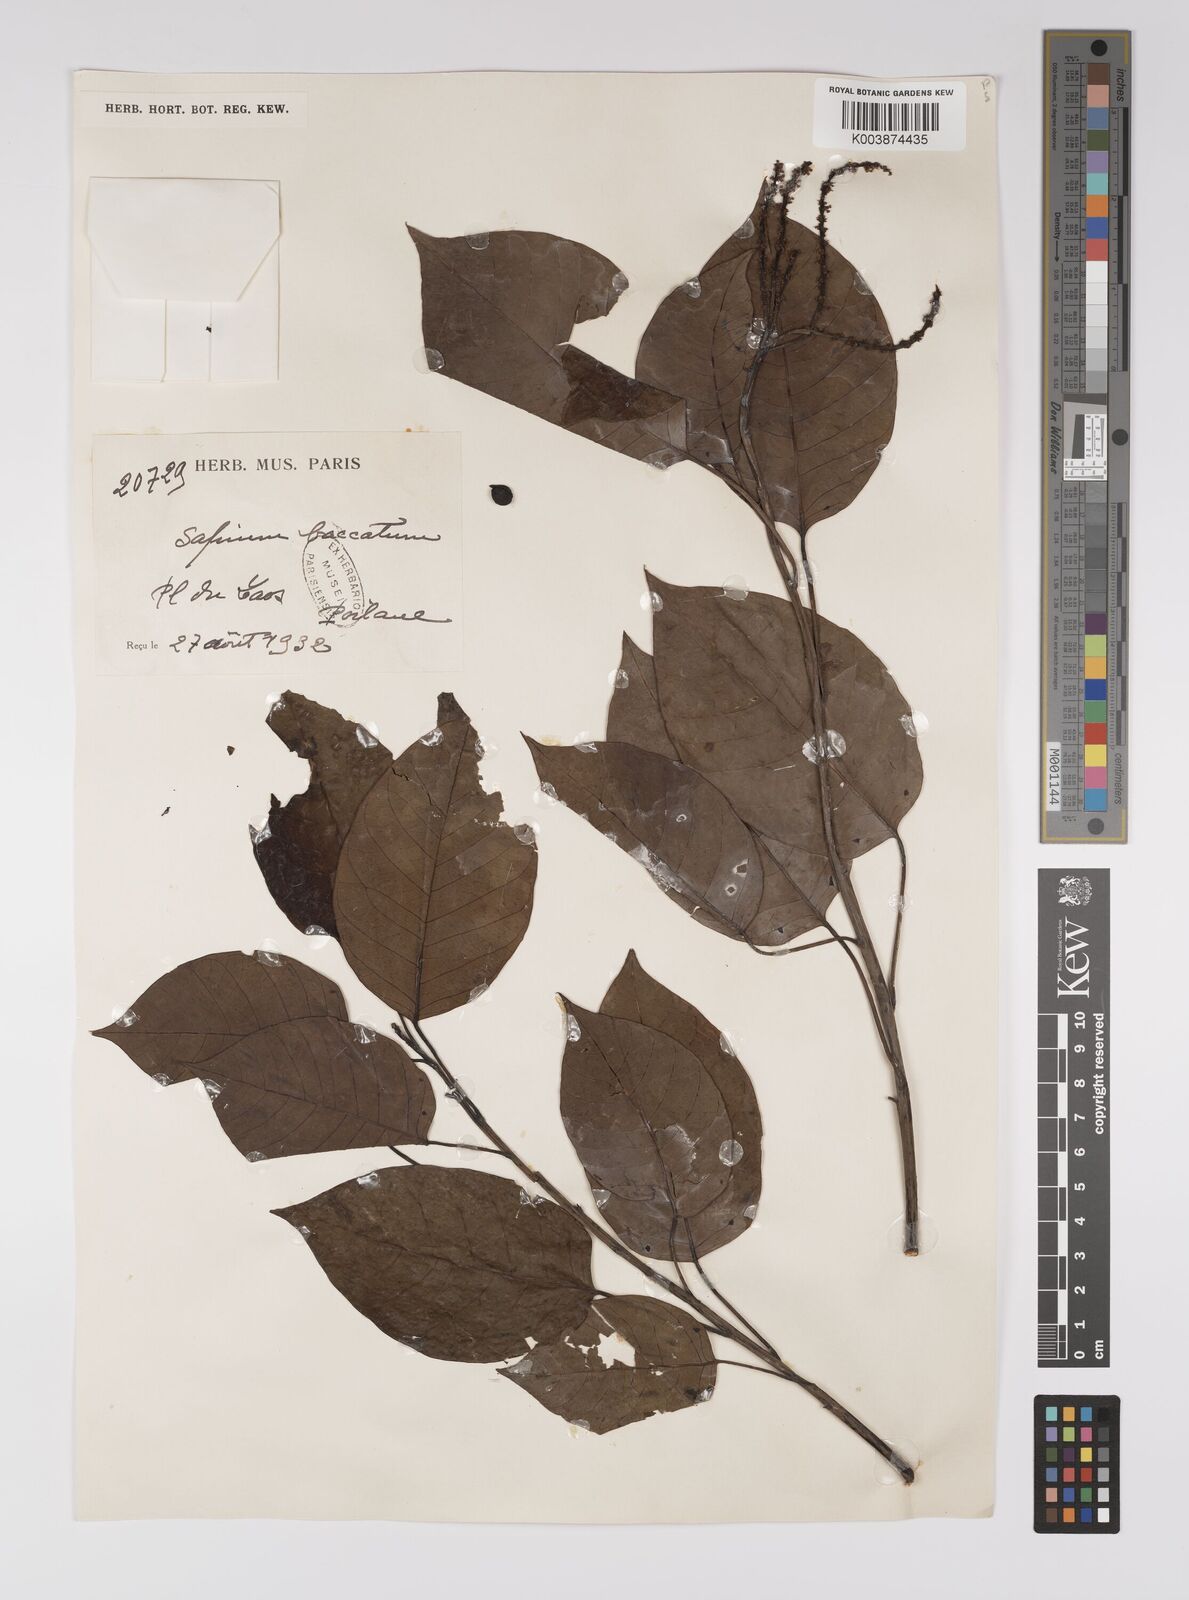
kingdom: Plantae
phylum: Tracheophyta
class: Magnoliopsida
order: Malpighiales
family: Euphorbiaceae
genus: Balakata
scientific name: Balakata baccata
